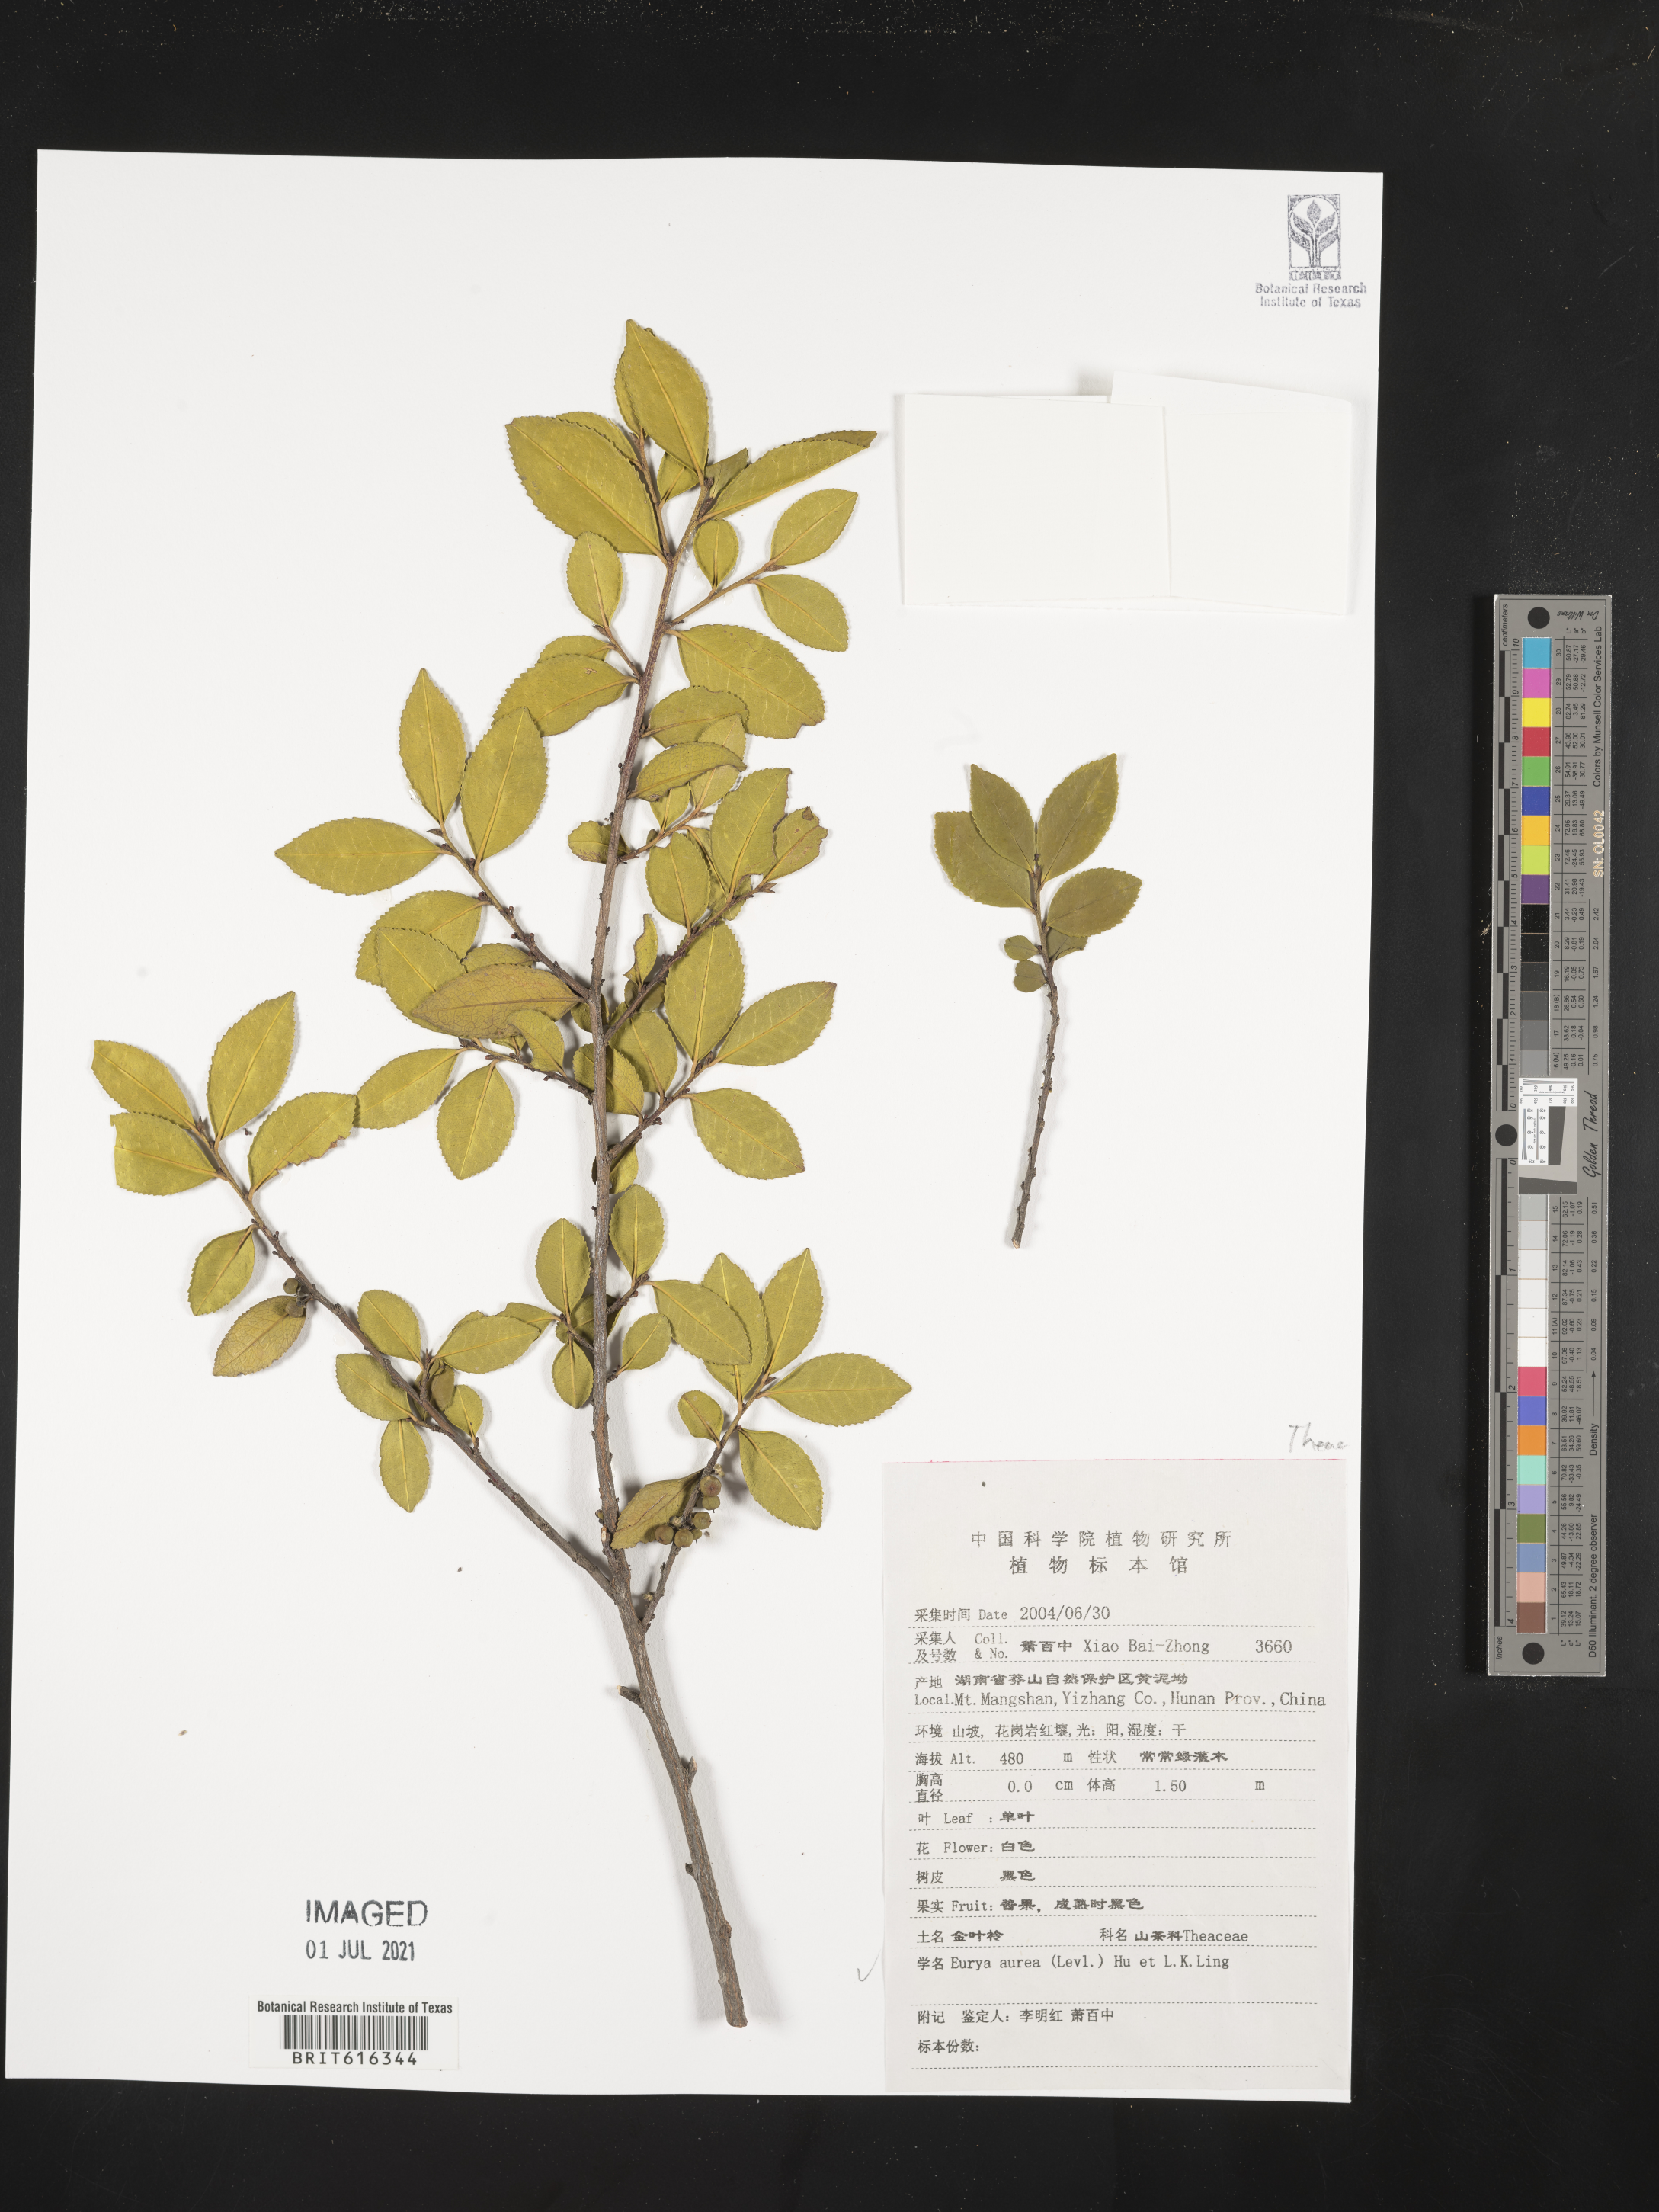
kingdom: Plantae
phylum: Tracheophyta
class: Magnoliopsida
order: Ericales
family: Pentaphylacaceae
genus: Eurya
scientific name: Eurya obtusifolia
